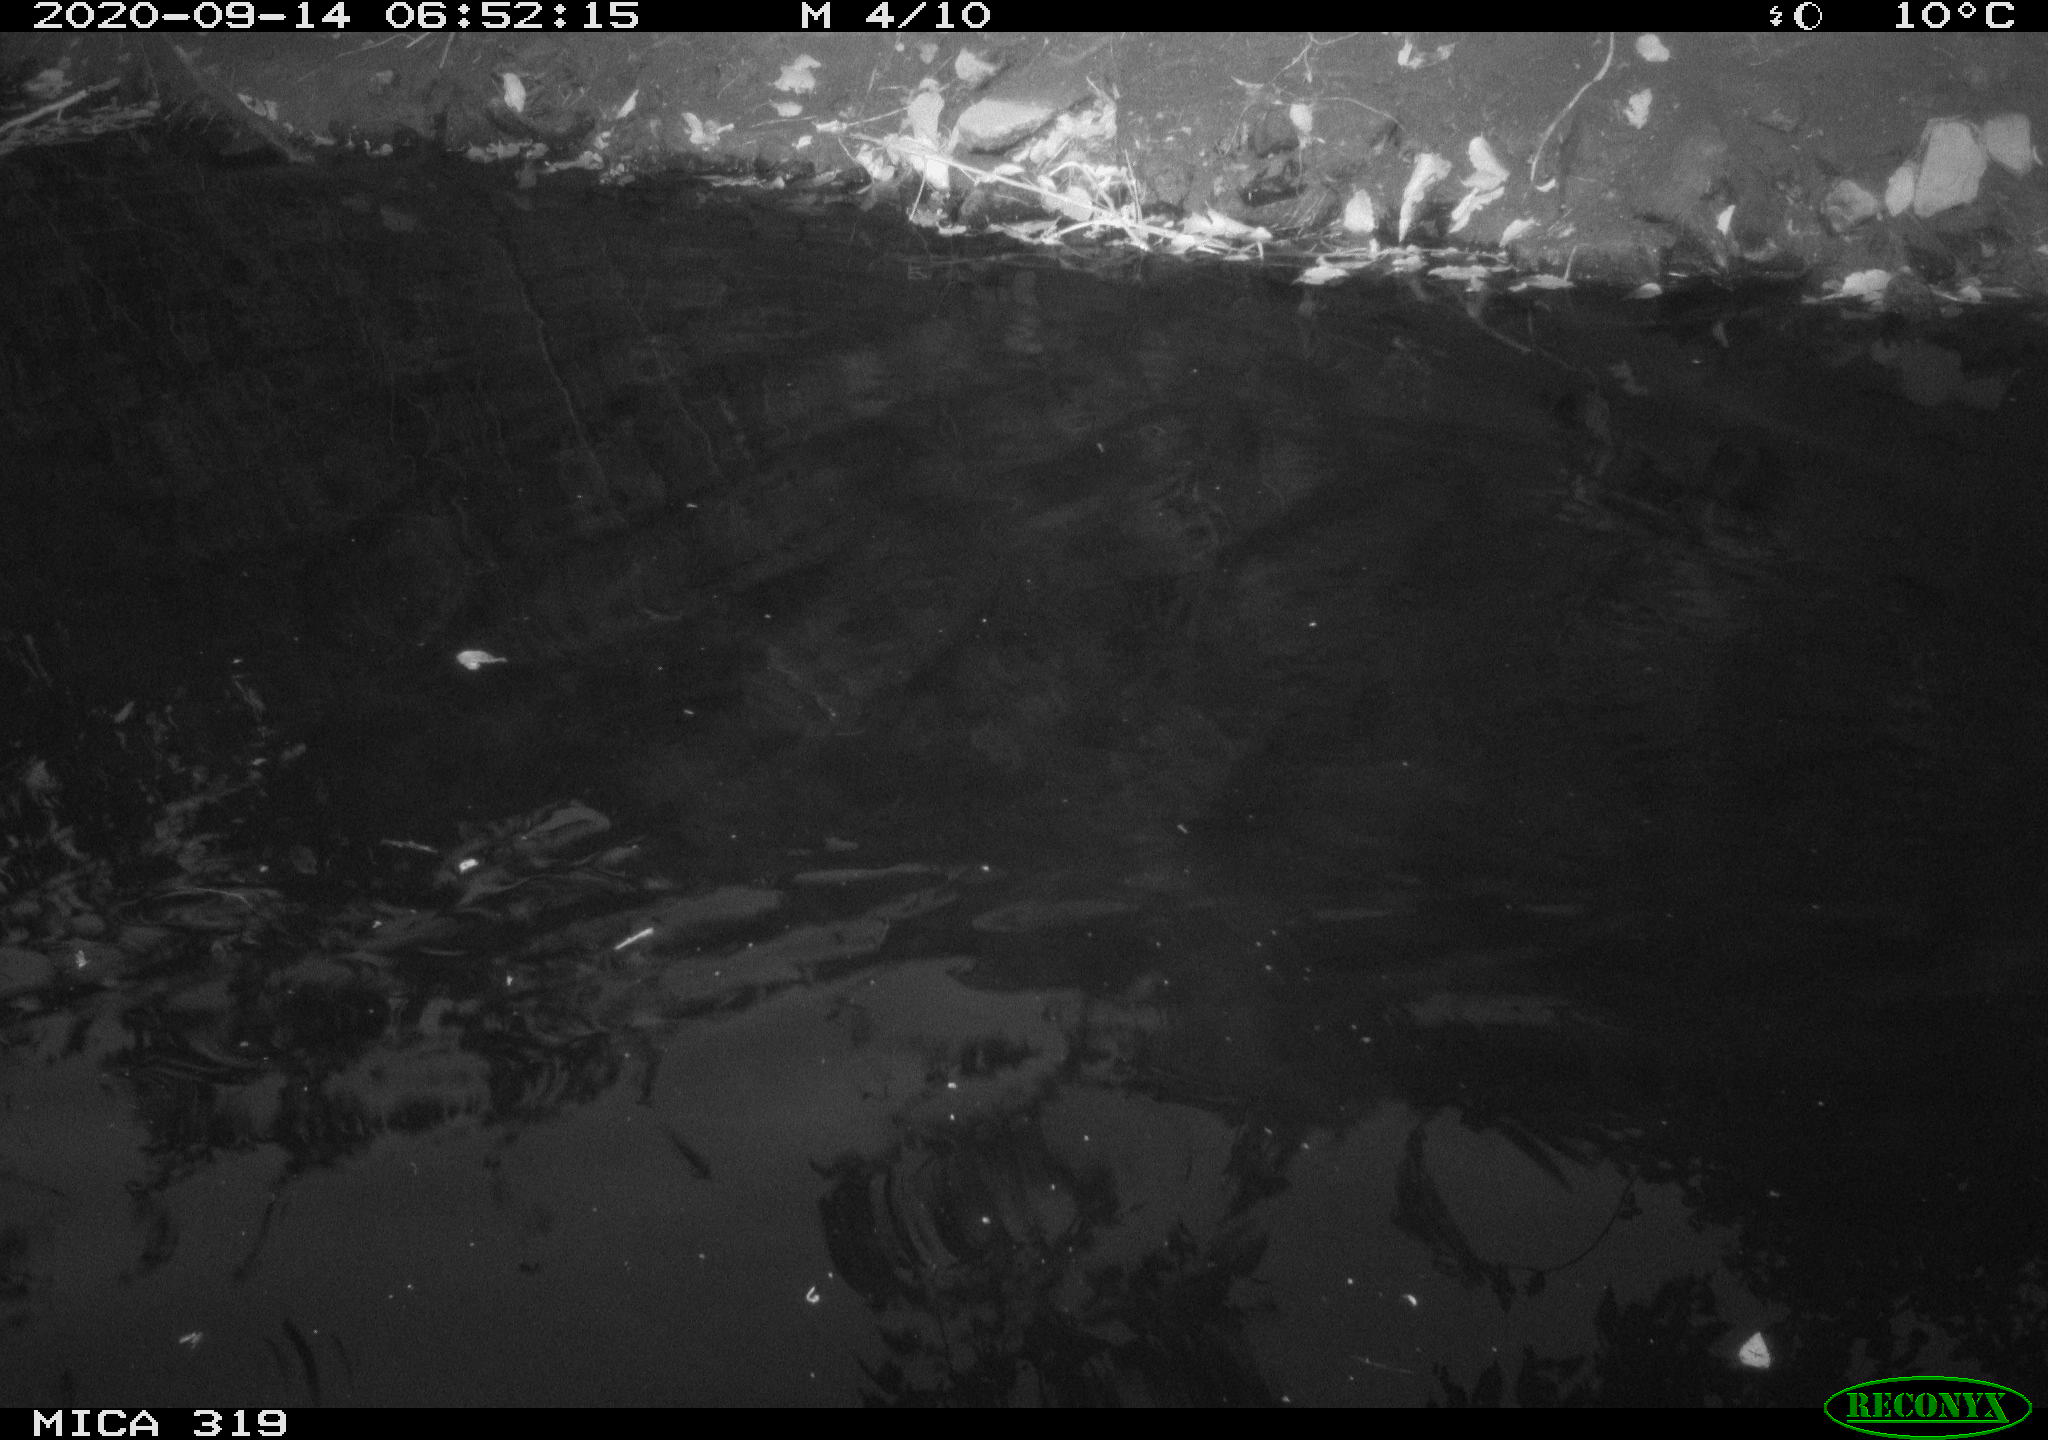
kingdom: Animalia
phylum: Chordata
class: Aves
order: Anseriformes
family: Anatidae
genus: Anas
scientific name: Anas platyrhynchos
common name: Mallard
